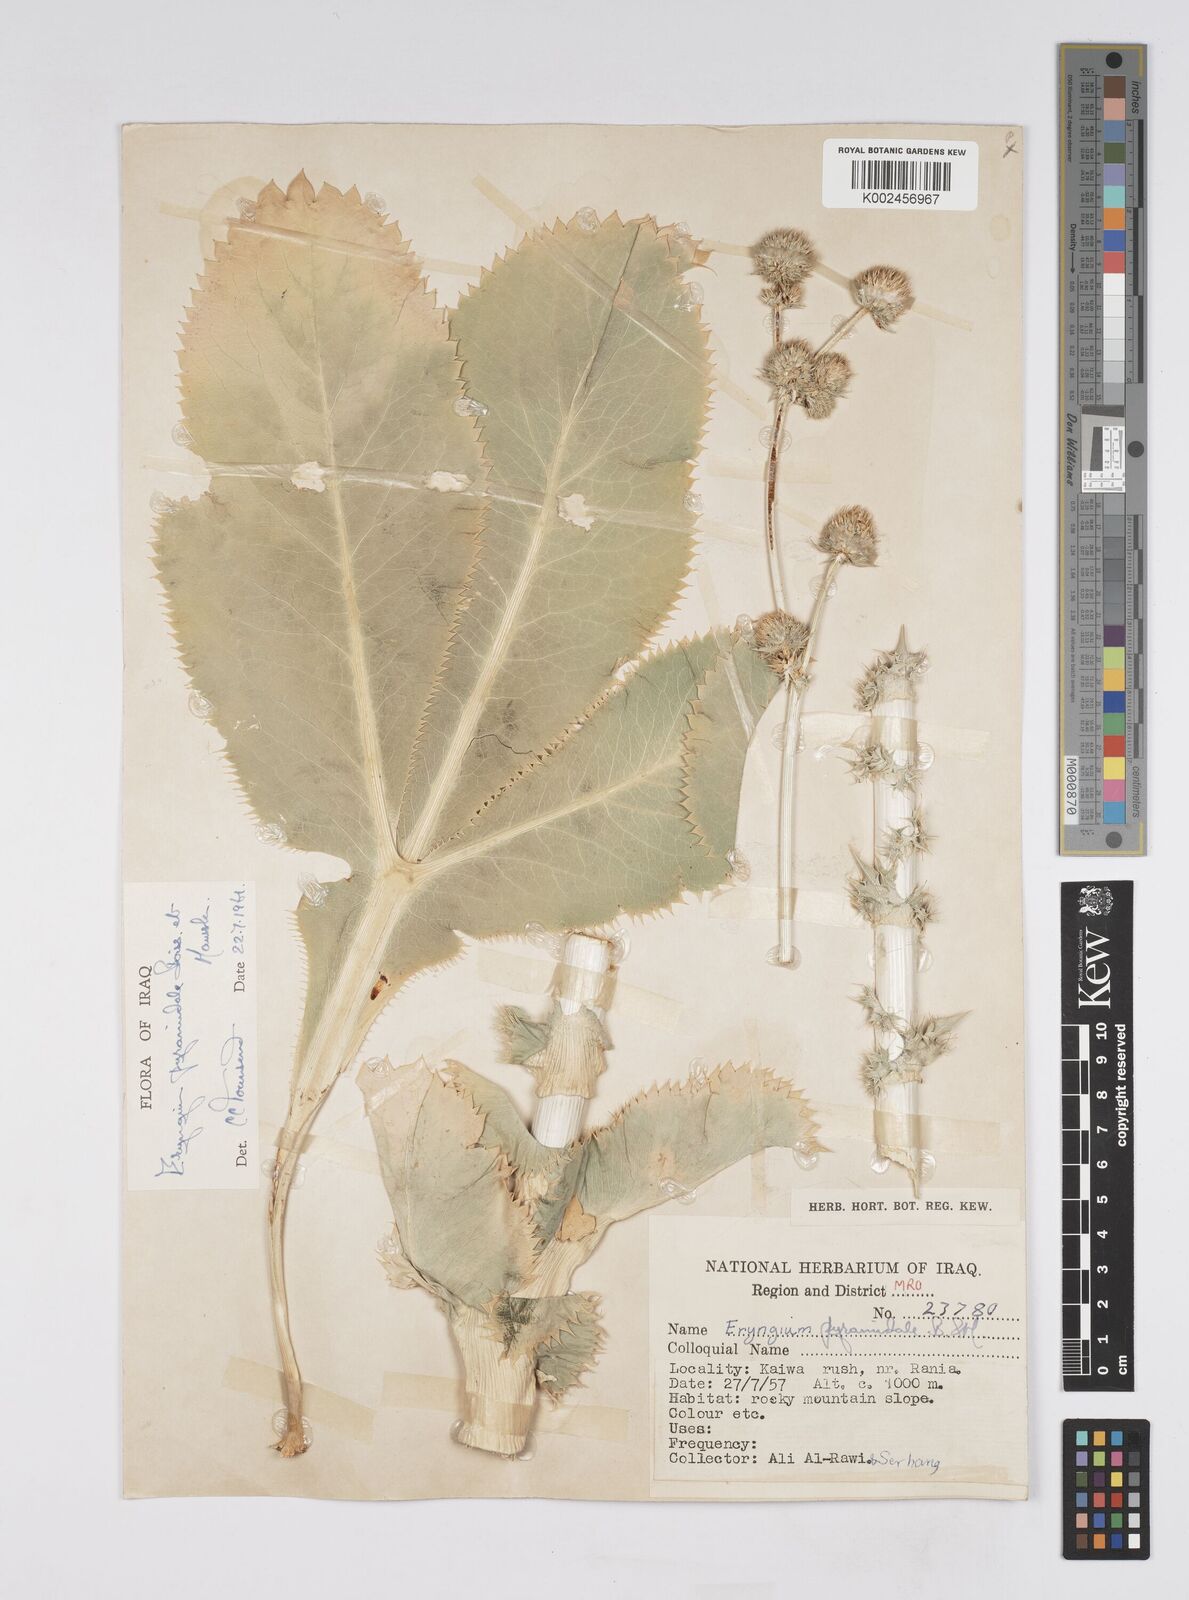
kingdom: Plantae
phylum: Tracheophyta
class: Magnoliopsida
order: Apiales
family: Apiaceae
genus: Eryngium
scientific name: Eryngium pyramidale
